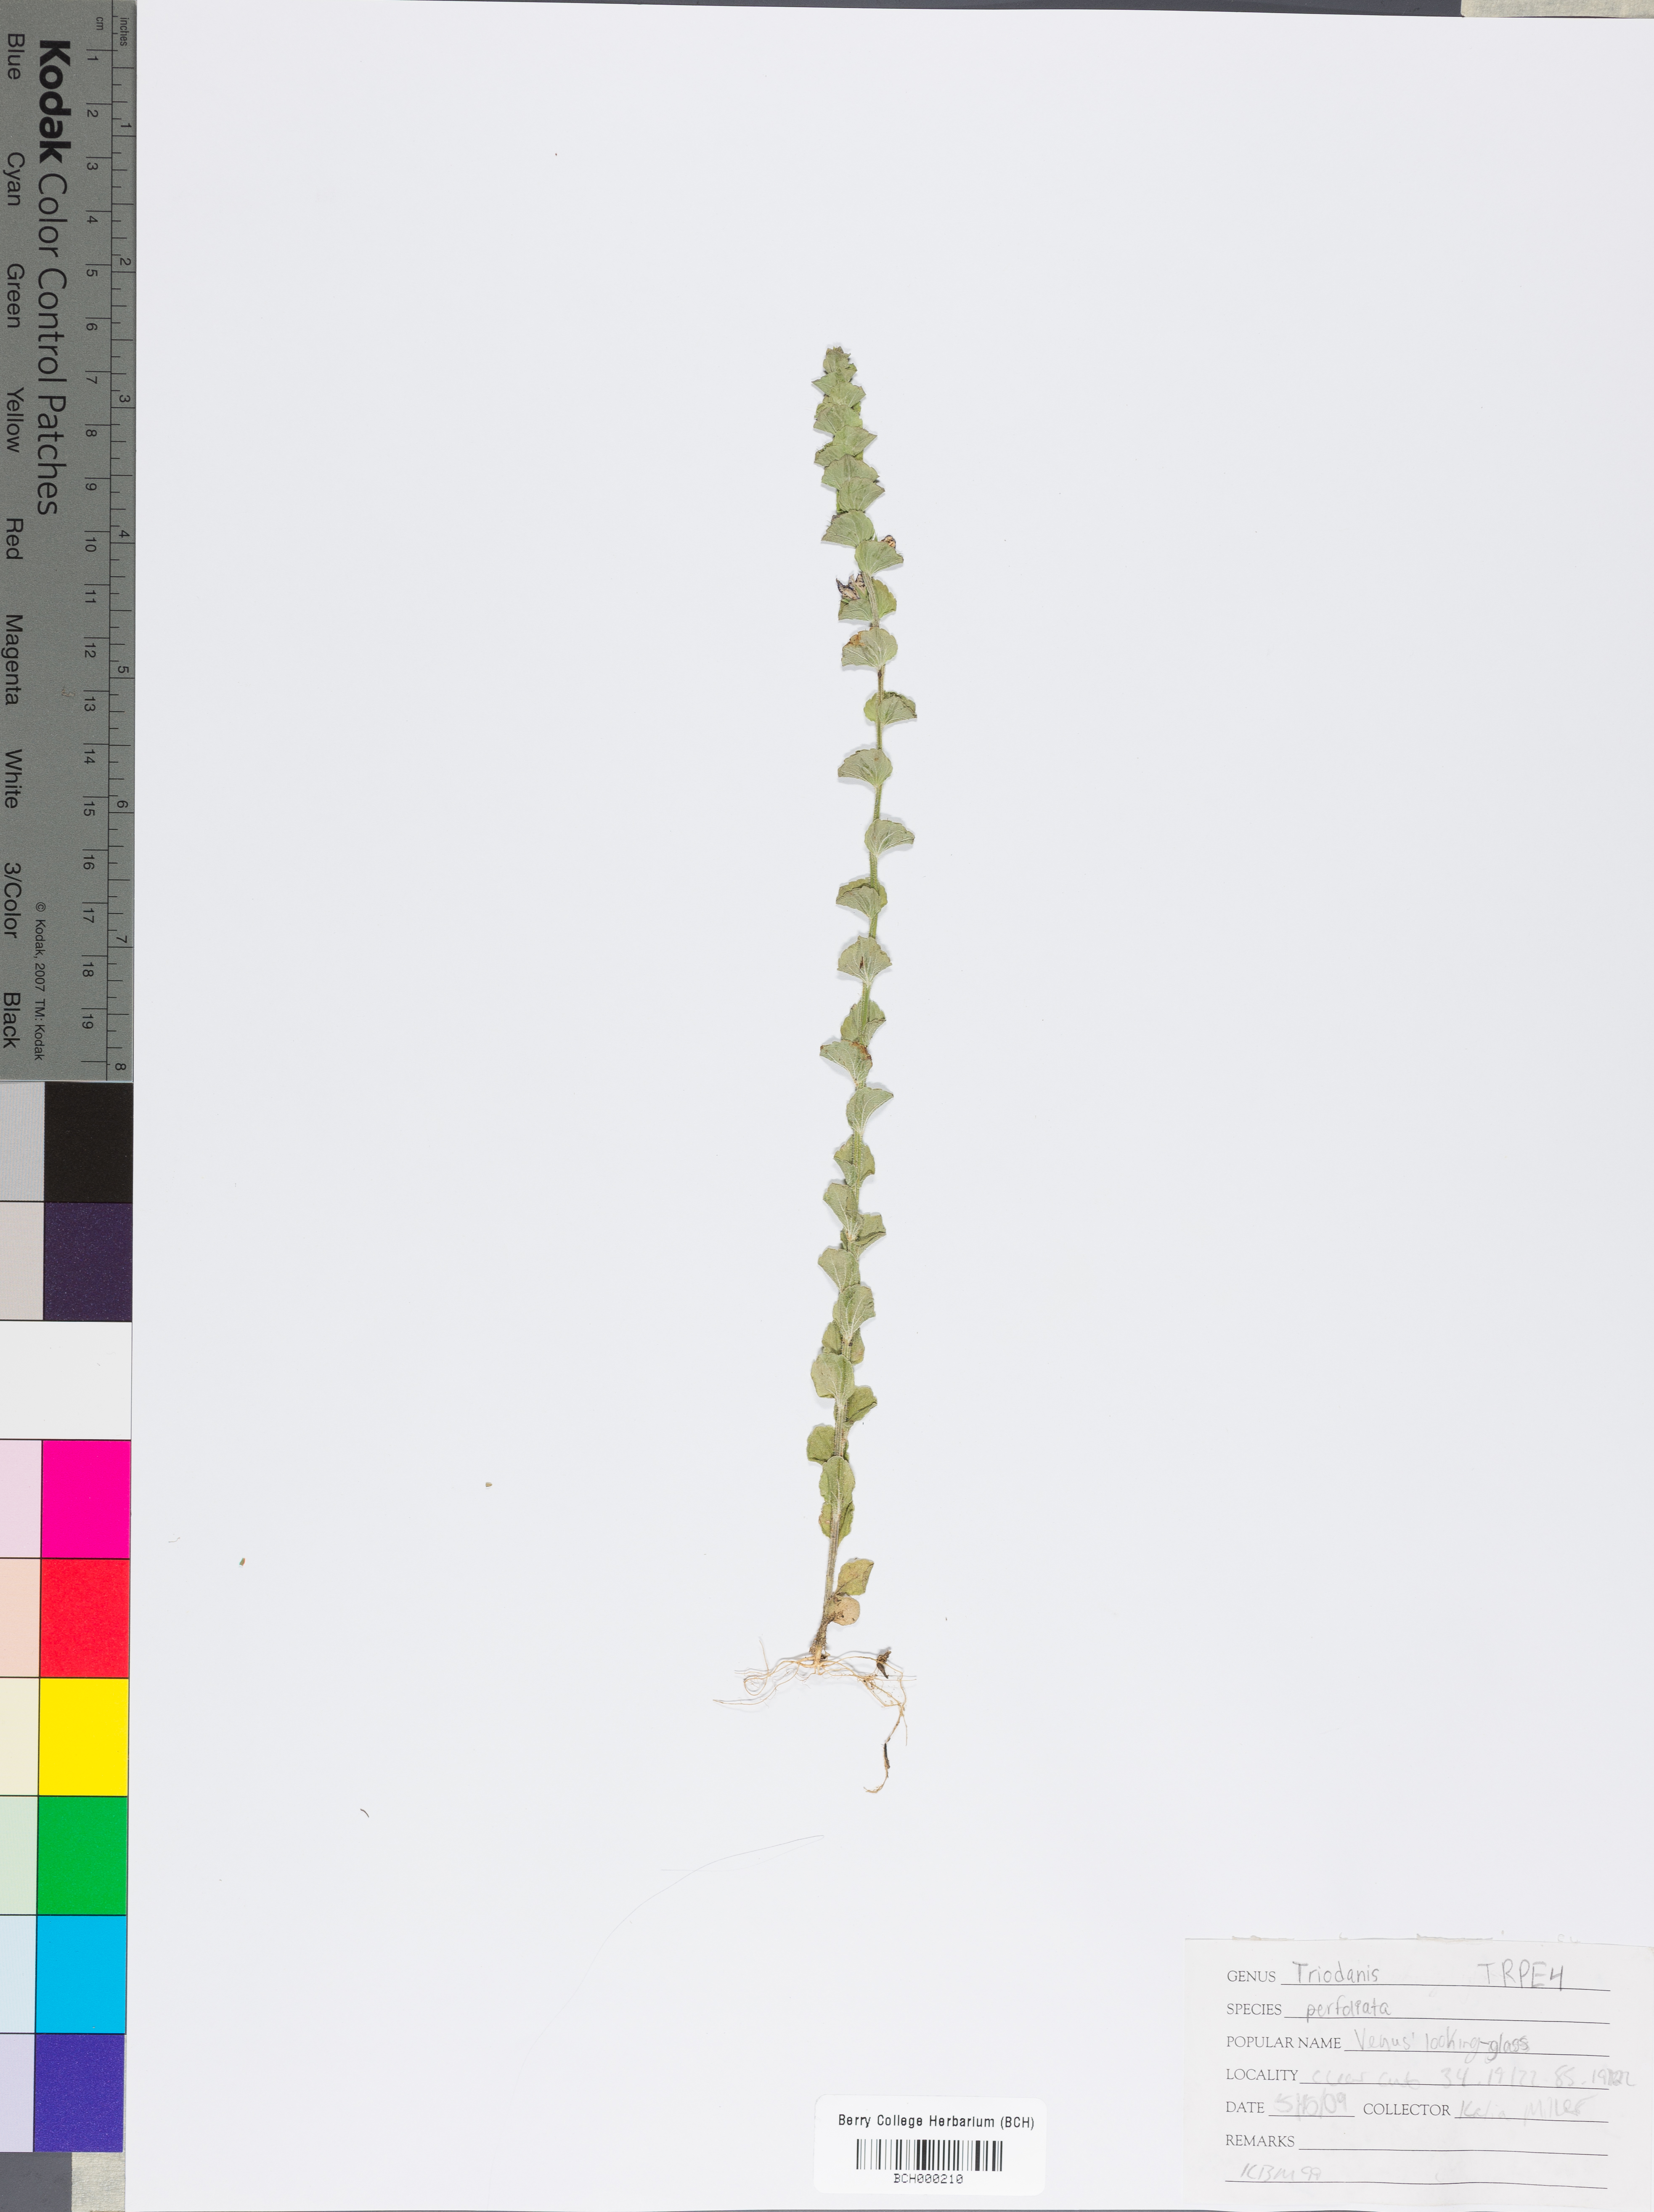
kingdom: Plantae
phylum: Tracheophyta
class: Magnoliopsida
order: Asterales
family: Campanulaceae
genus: Triodanis
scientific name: Triodanis perfoliata
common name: Clasping venus' looking-glass
